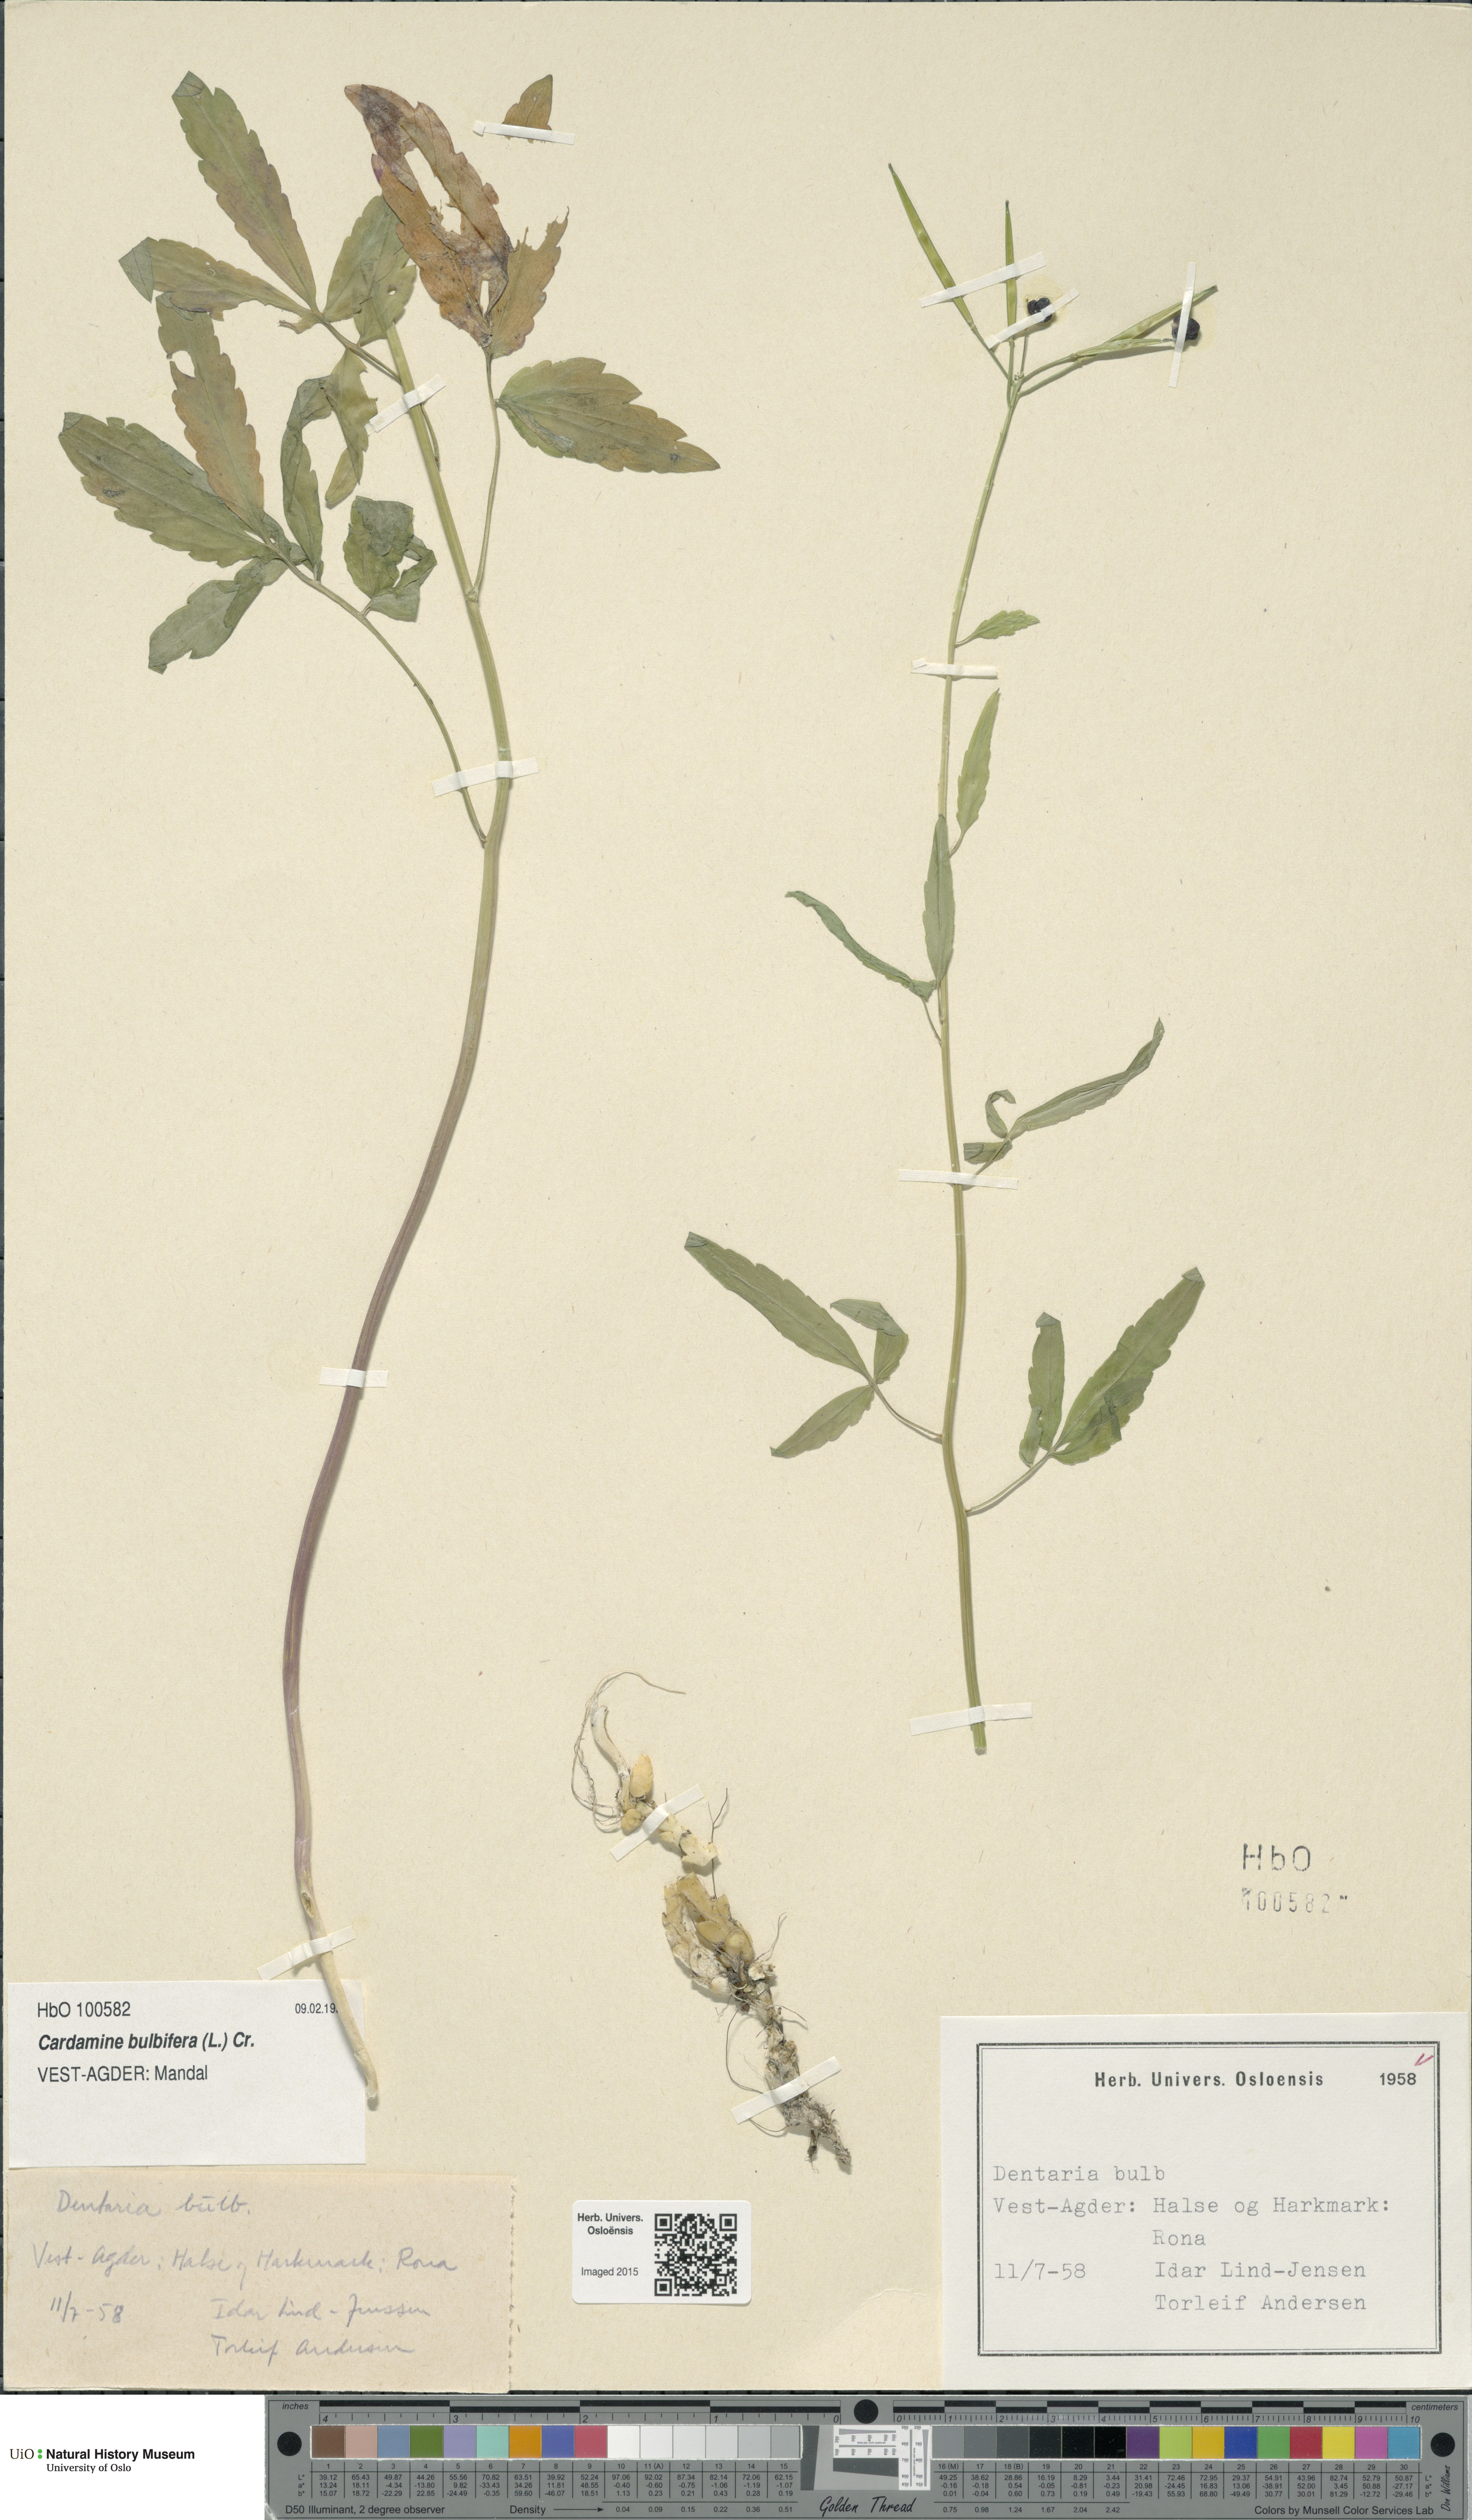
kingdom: Plantae
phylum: Tracheophyta
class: Magnoliopsida
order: Brassicales
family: Brassicaceae
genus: Cardamine
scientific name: Cardamine bulbifera
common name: Coralroot bittercress
